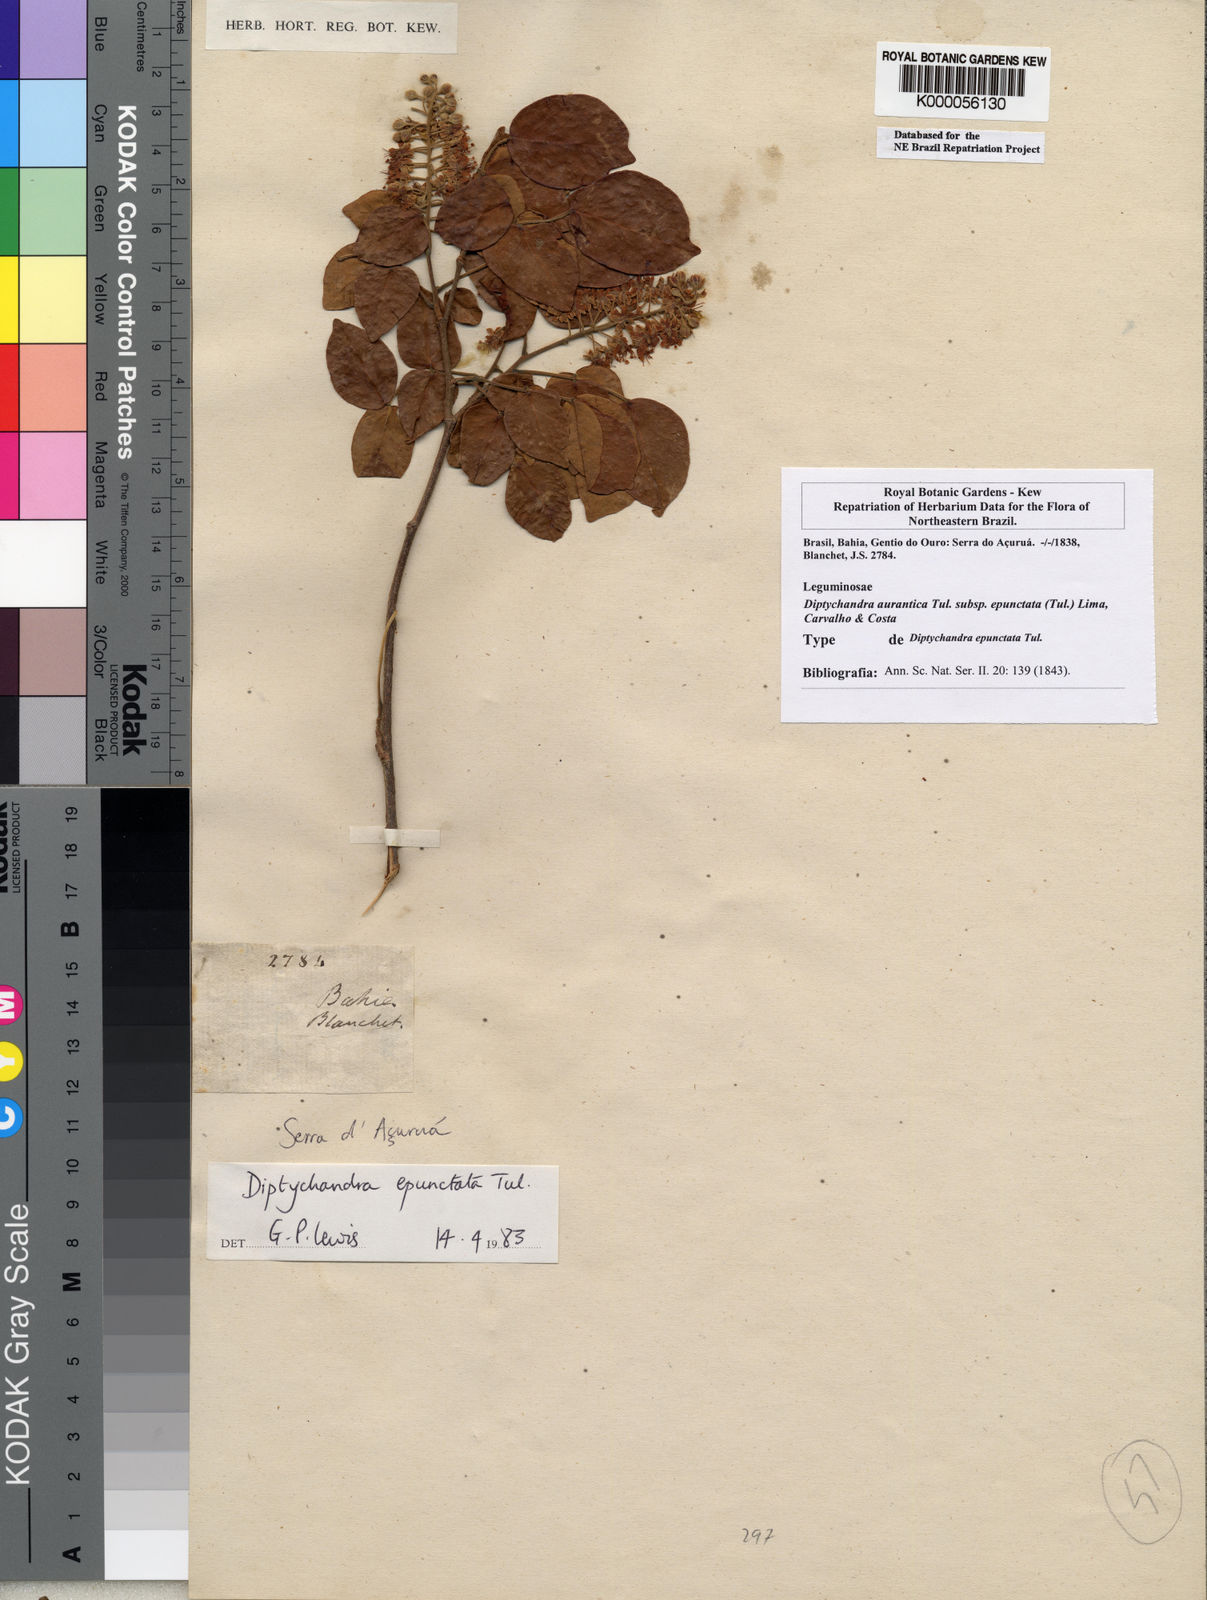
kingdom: Plantae
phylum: Tracheophyta
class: Magnoliopsida
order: Fabales
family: Fabaceae
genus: Diptychandra
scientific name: Diptychandra
